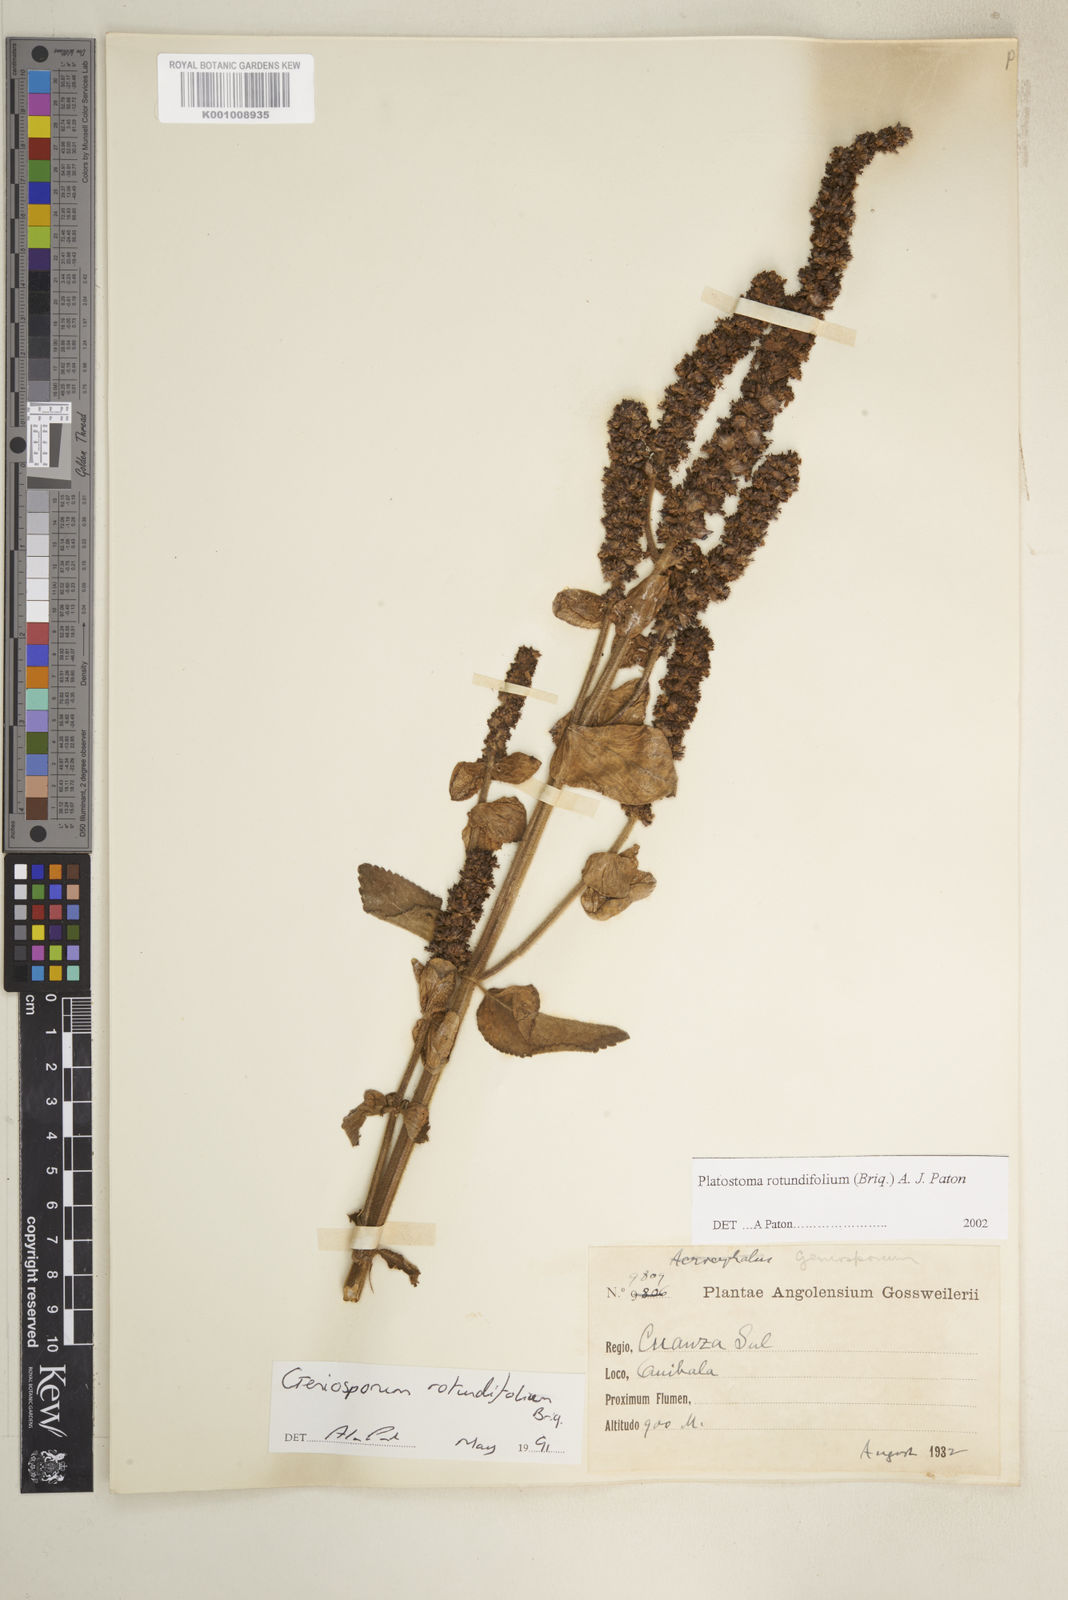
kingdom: Plantae
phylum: Tracheophyta
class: Magnoliopsida
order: Lamiales
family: Lamiaceae
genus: Platostoma
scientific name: Platostoma rotundifolium
